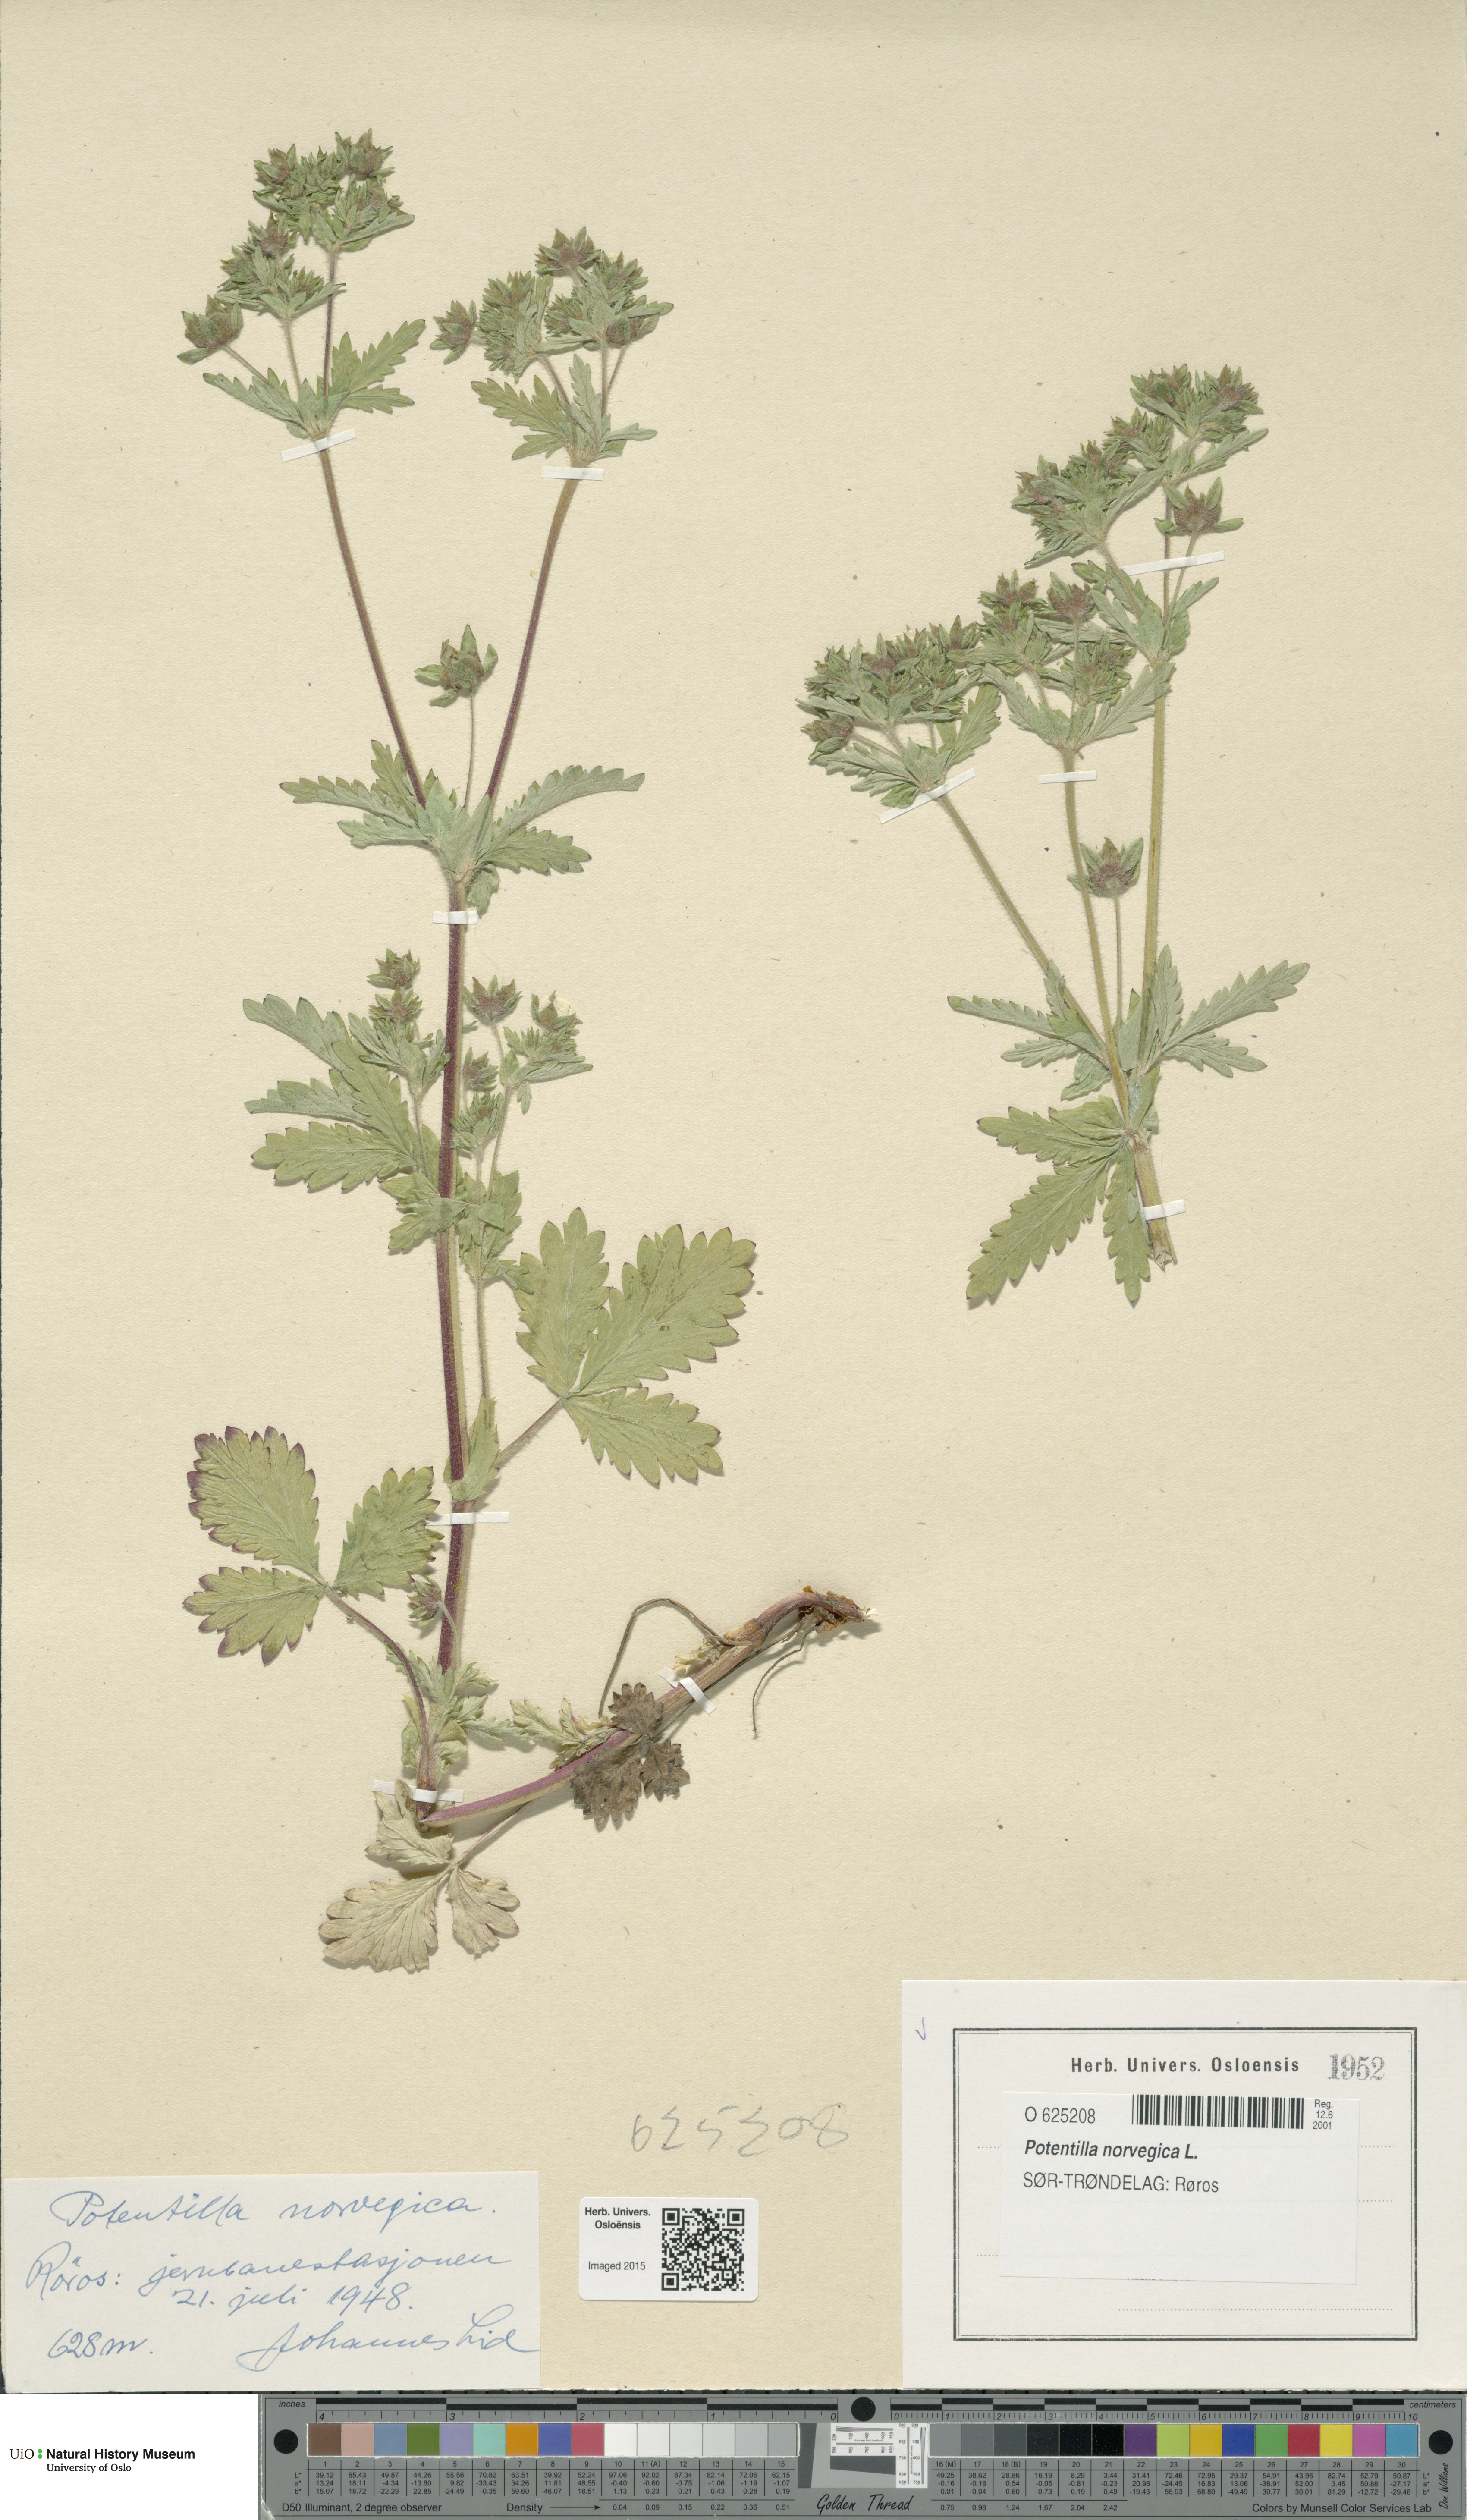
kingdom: Plantae
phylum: Tracheophyta
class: Magnoliopsida
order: Rosales
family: Rosaceae
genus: Potentilla
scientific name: Potentilla norvegica
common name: Ternate-leaved cinquefoil
